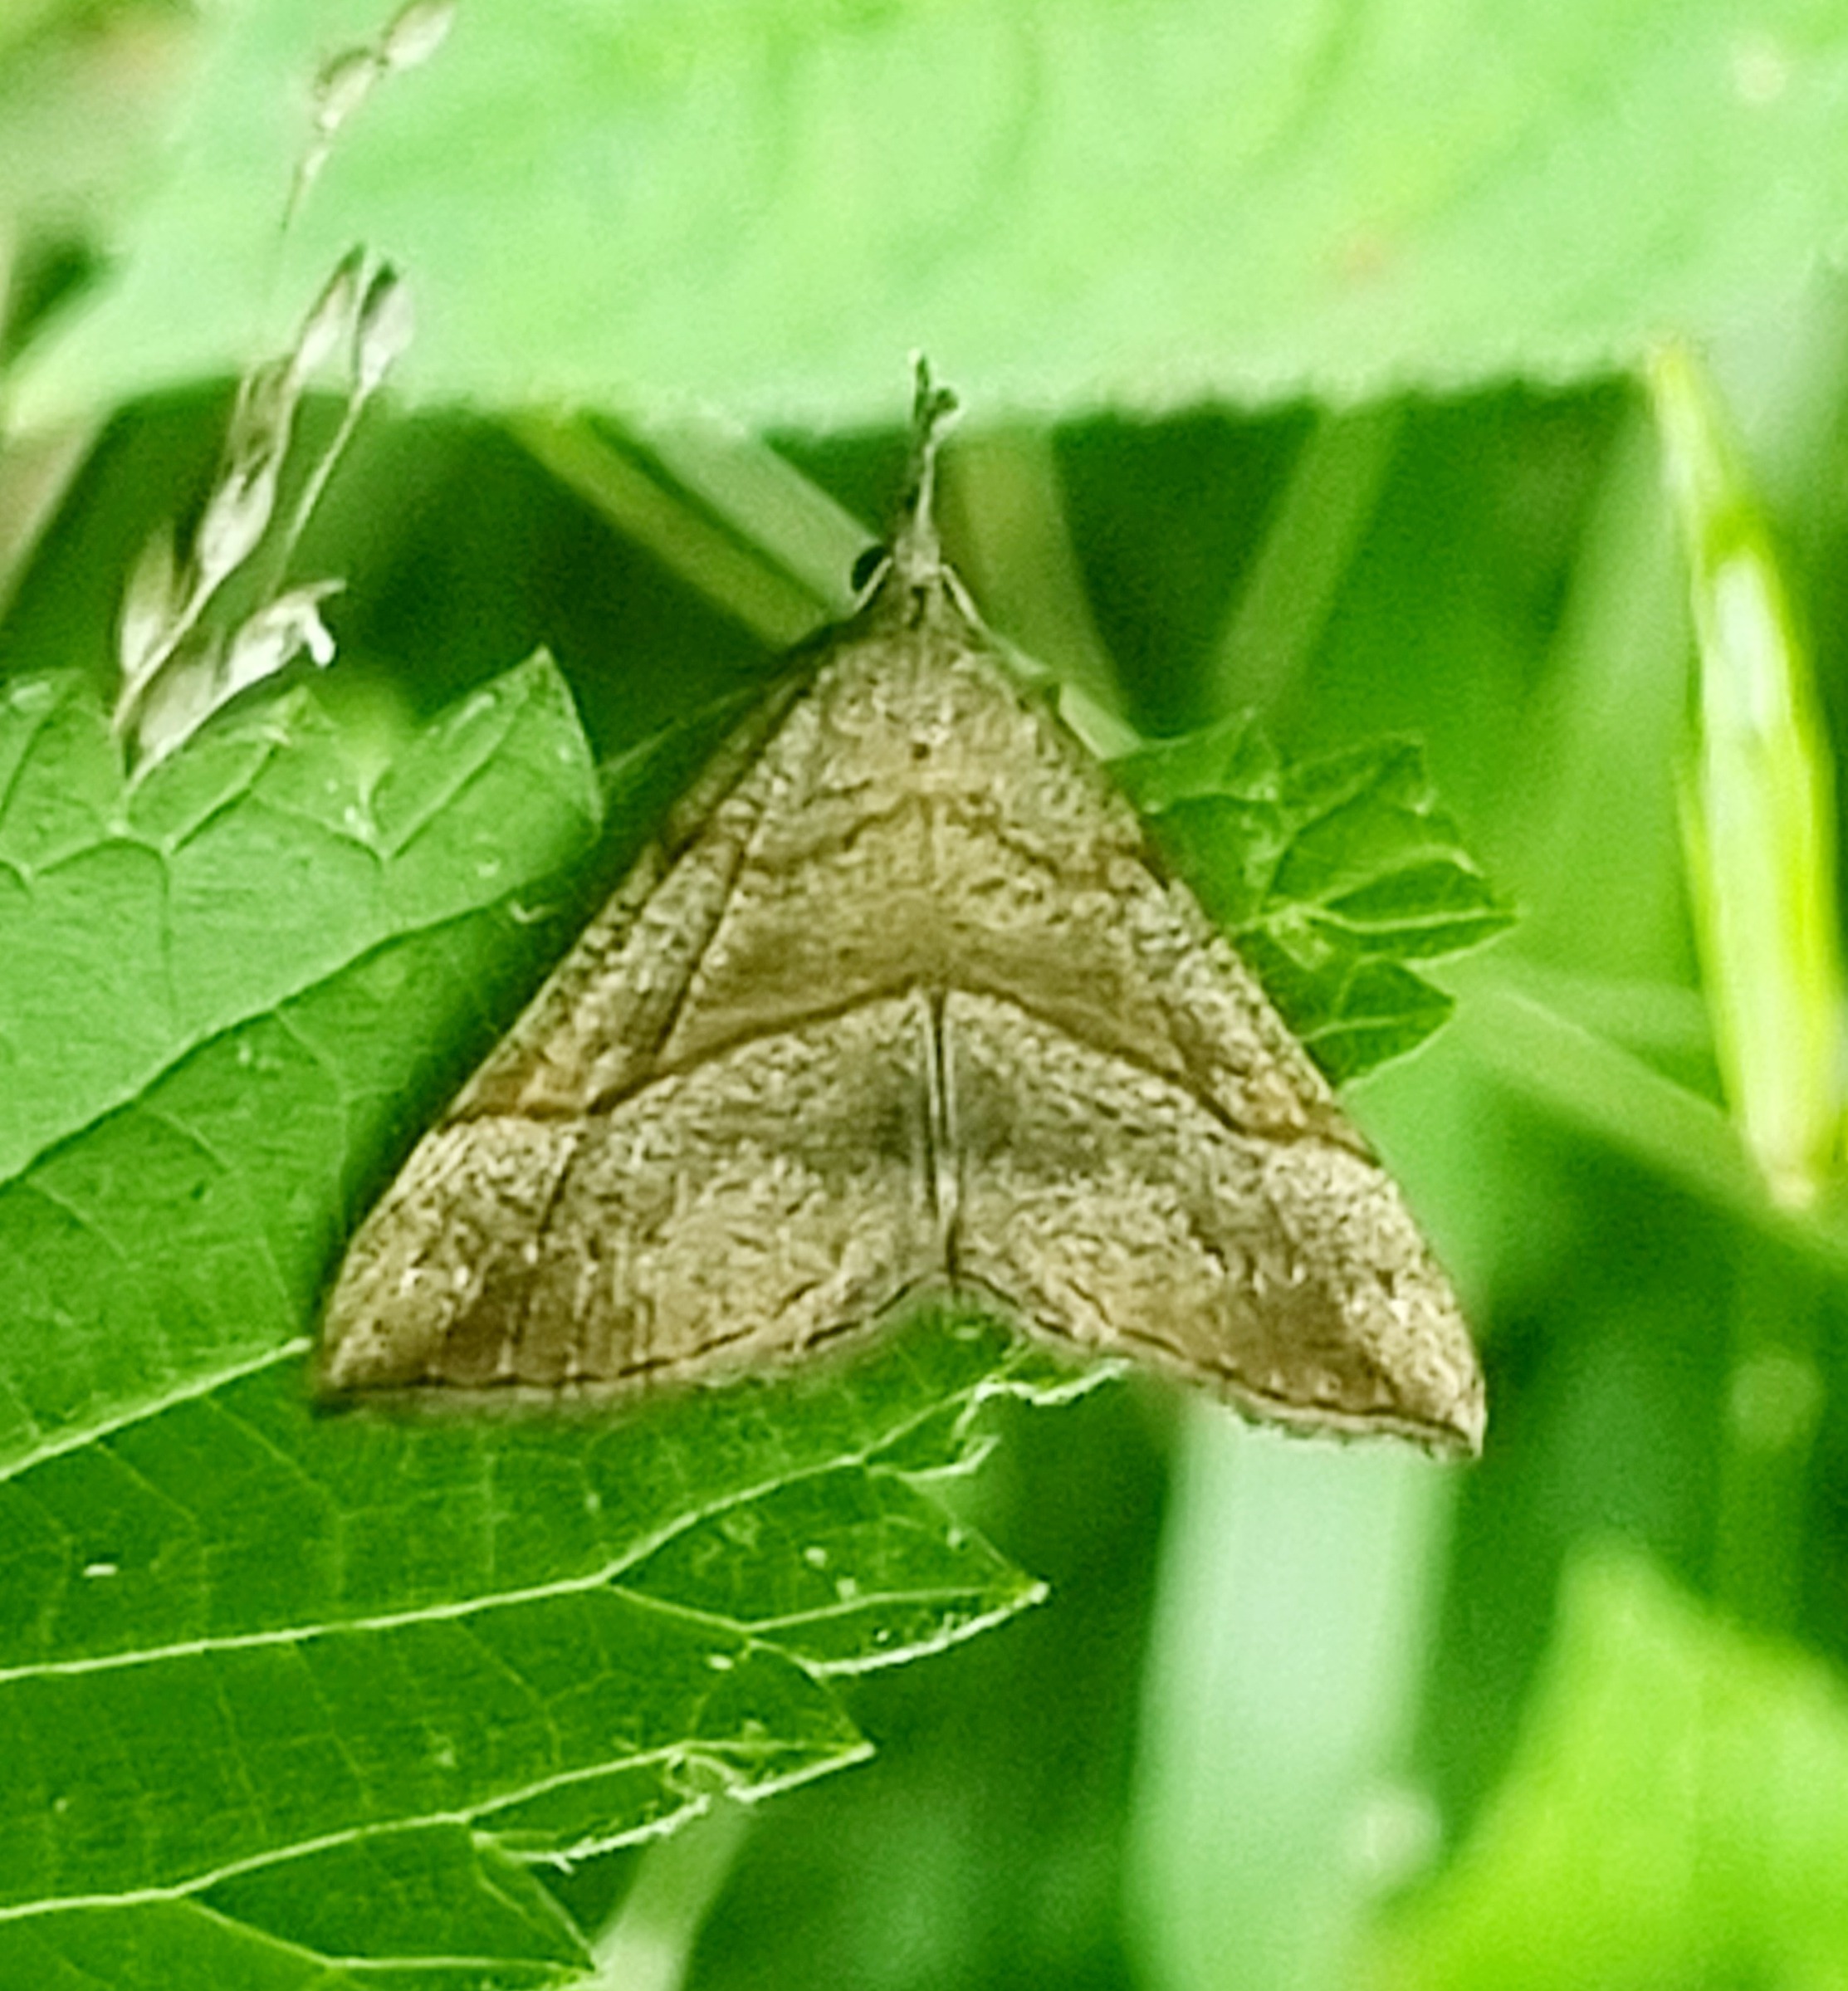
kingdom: Animalia
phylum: Arthropoda
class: Insecta
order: Lepidoptera
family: Erebidae
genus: Hypena
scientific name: Hypena proboscidalis
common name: Snudeugle
